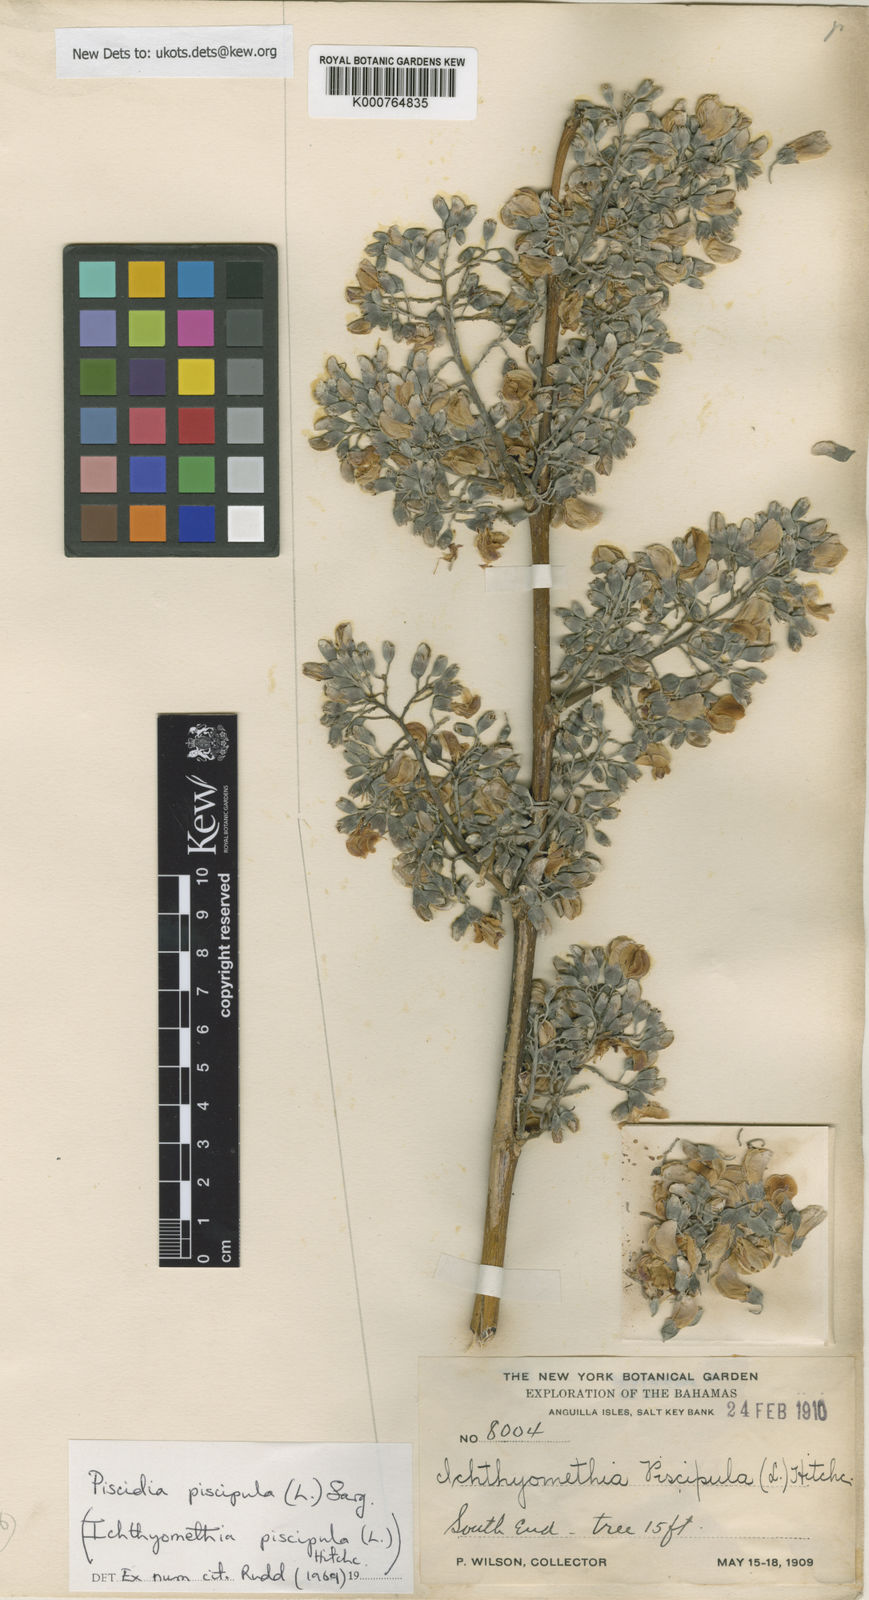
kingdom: Plantae
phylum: Tracheophyta
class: Magnoliopsida
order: Fabales
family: Fabaceae
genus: Piscidia
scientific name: Piscidia piscipula
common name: Florida fishpoison tree
